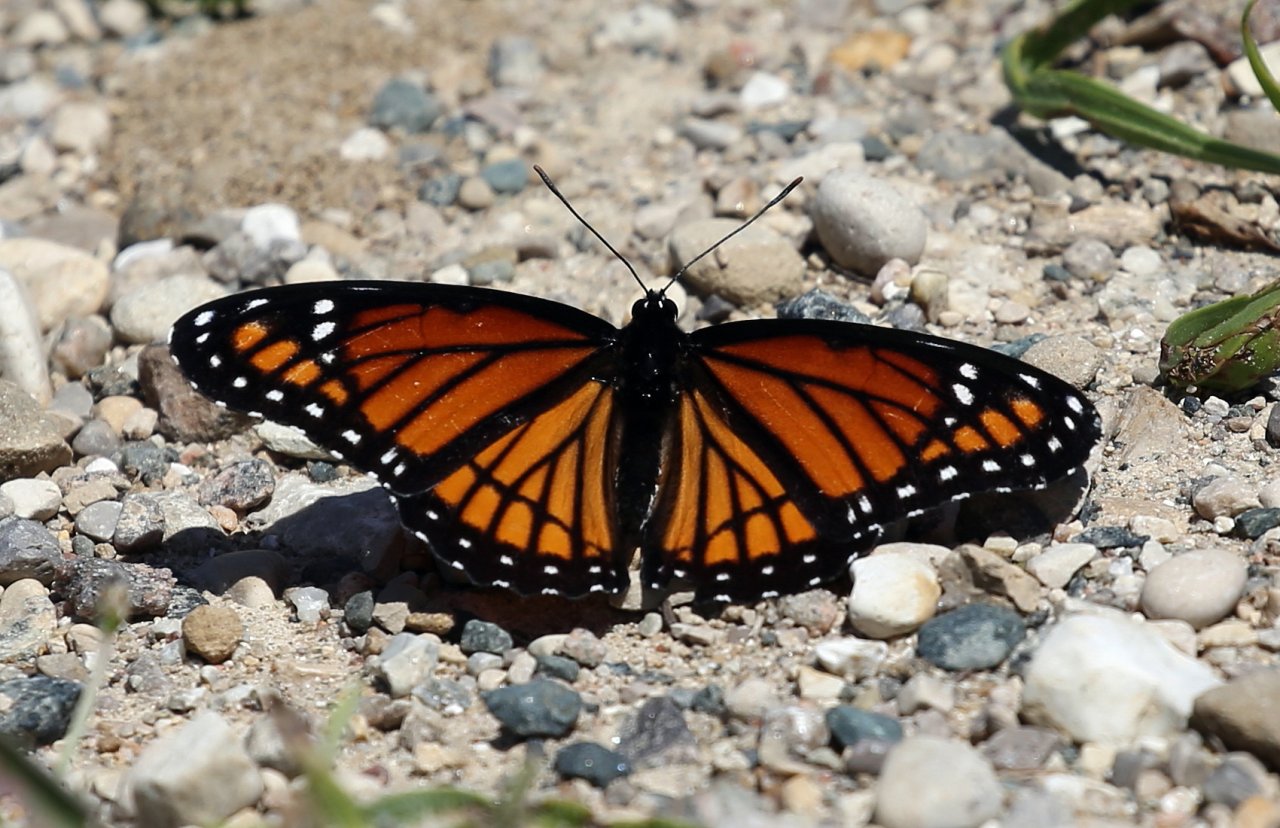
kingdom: Animalia
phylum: Arthropoda
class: Insecta
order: Lepidoptera
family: Nymphalidae
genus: Limenitis
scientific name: Limenitis archippus
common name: Viceroy
